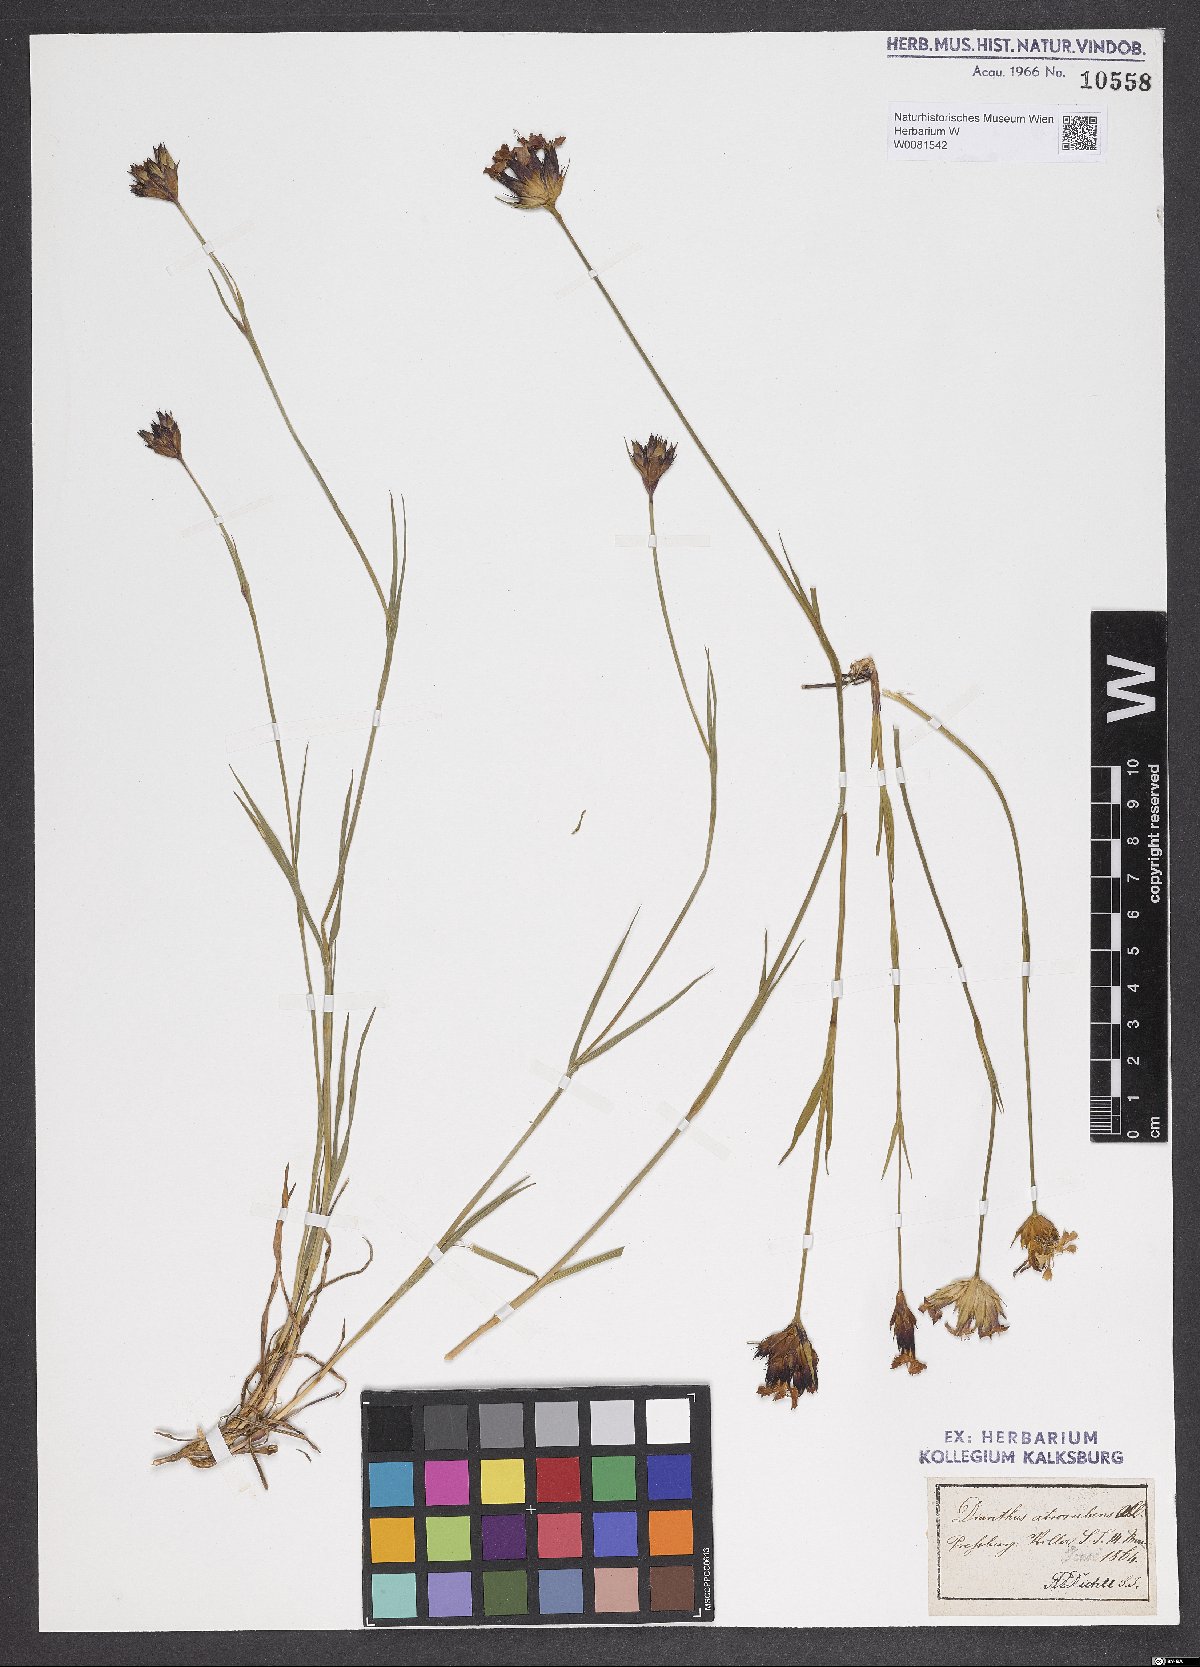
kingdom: Plantae
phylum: Tracheophyta
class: Magnoliopsida
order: Caryophyllales
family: Caryophyllaceae
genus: Dianthus
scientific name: Dianthus carthusianorum
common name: Carthusian pink
